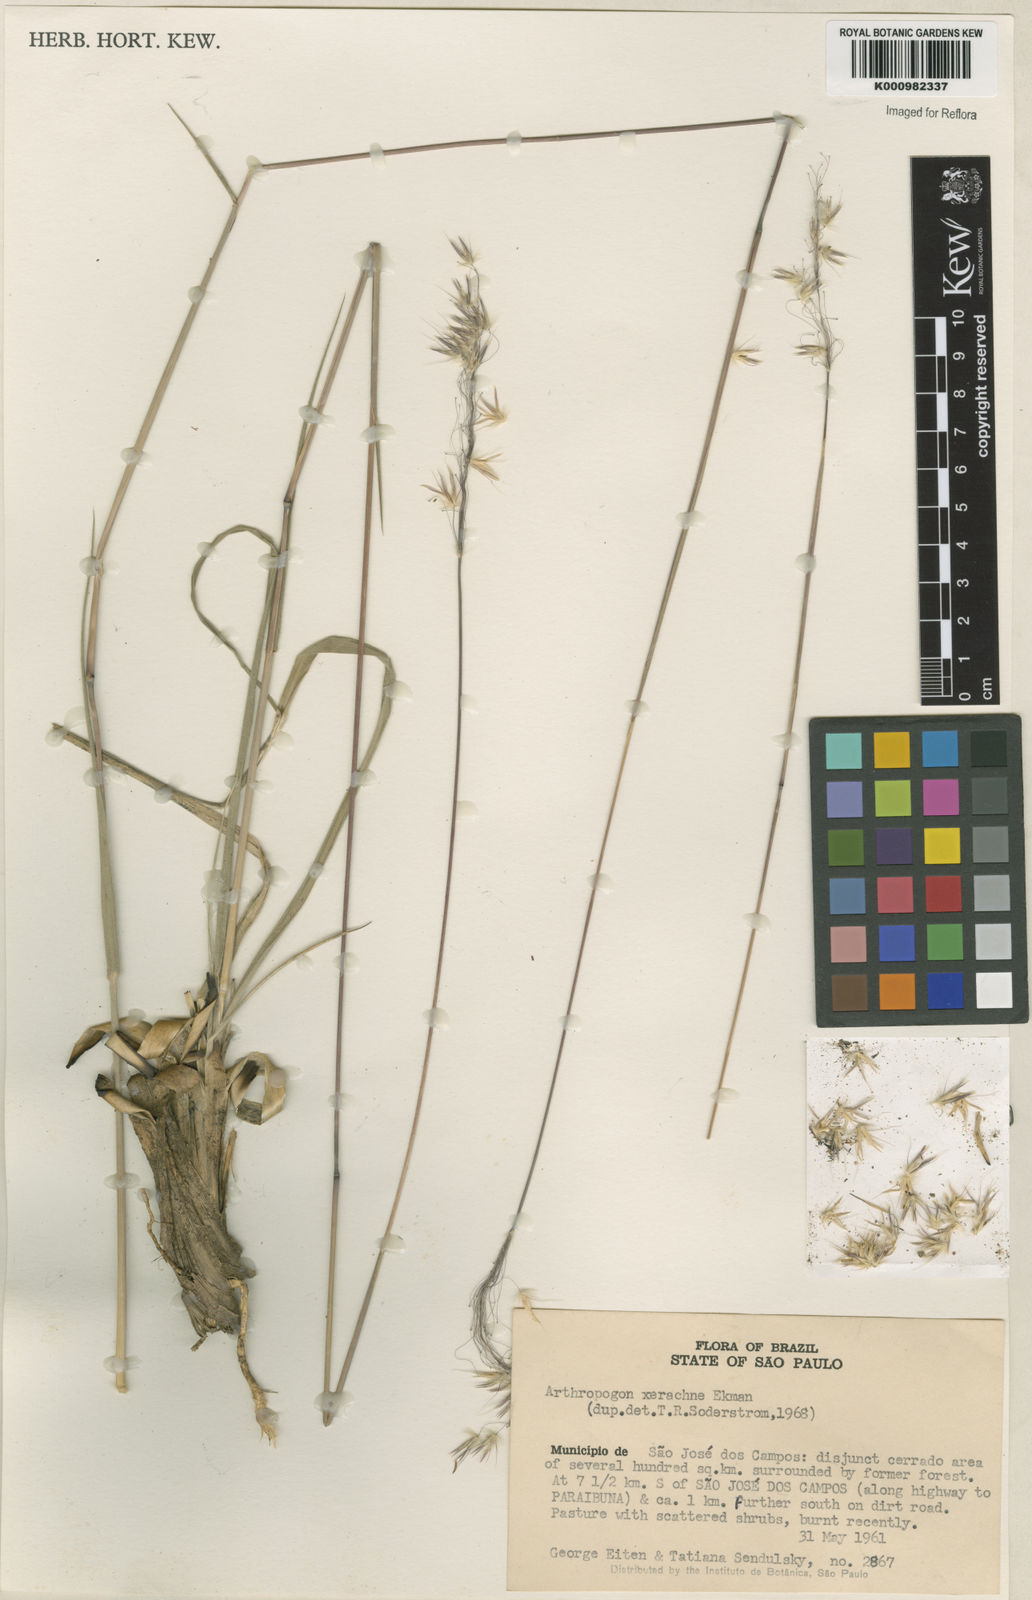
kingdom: Plantae
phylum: Tracheophyta
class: Liliopsida
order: Poales
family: Poaceae
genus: Arthropogon
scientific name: Arthropogon xerachne
